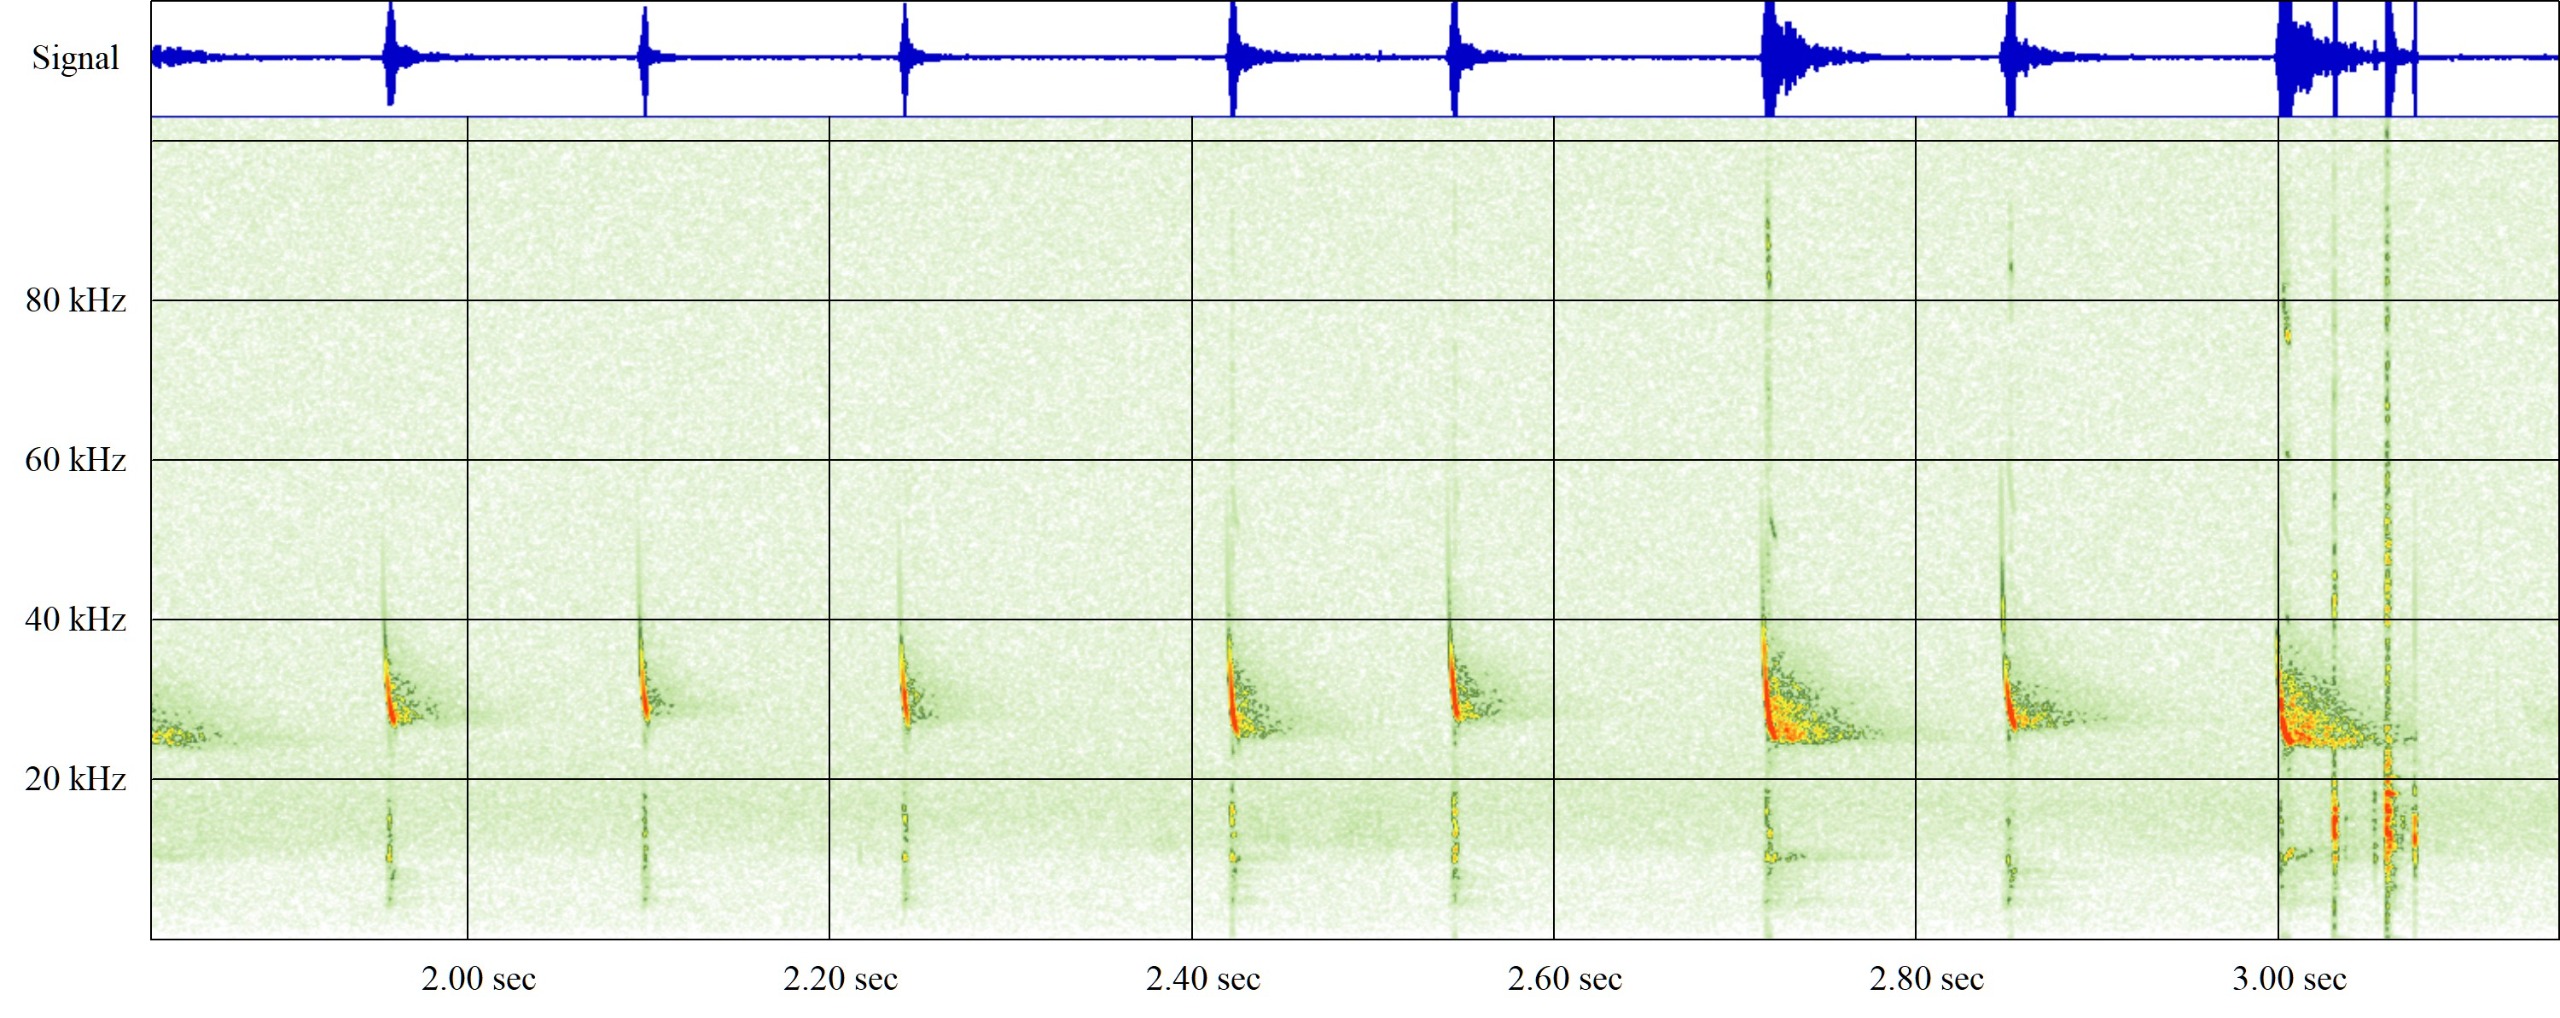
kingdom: Animalia
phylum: Chordata
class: Mammalia
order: Chiroptera
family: Vespertilionidae
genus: Eptesicus
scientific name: Eptesicus serotinus
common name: Sydflagermus
